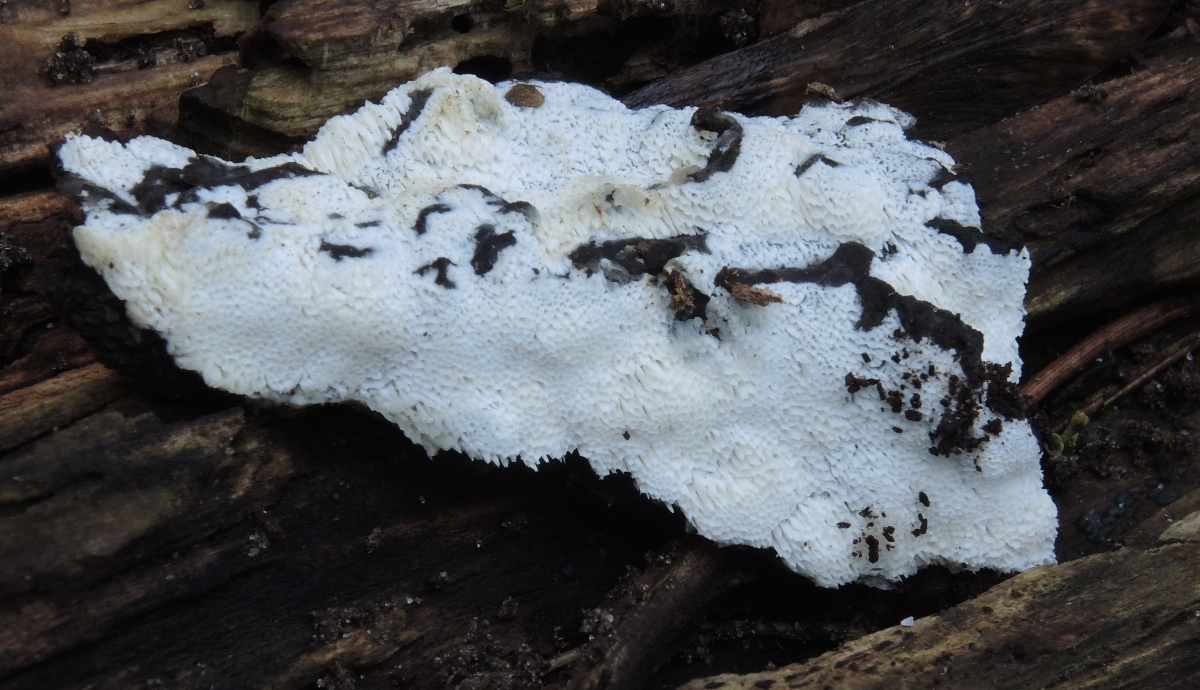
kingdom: Fungi
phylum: Basidiomycota
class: Agaricomycetes
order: Hymenochaetales
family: Oxyporaceae
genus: Oxyporus
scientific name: Oxyporus obducens
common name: skorpe-trylleporesvamp
